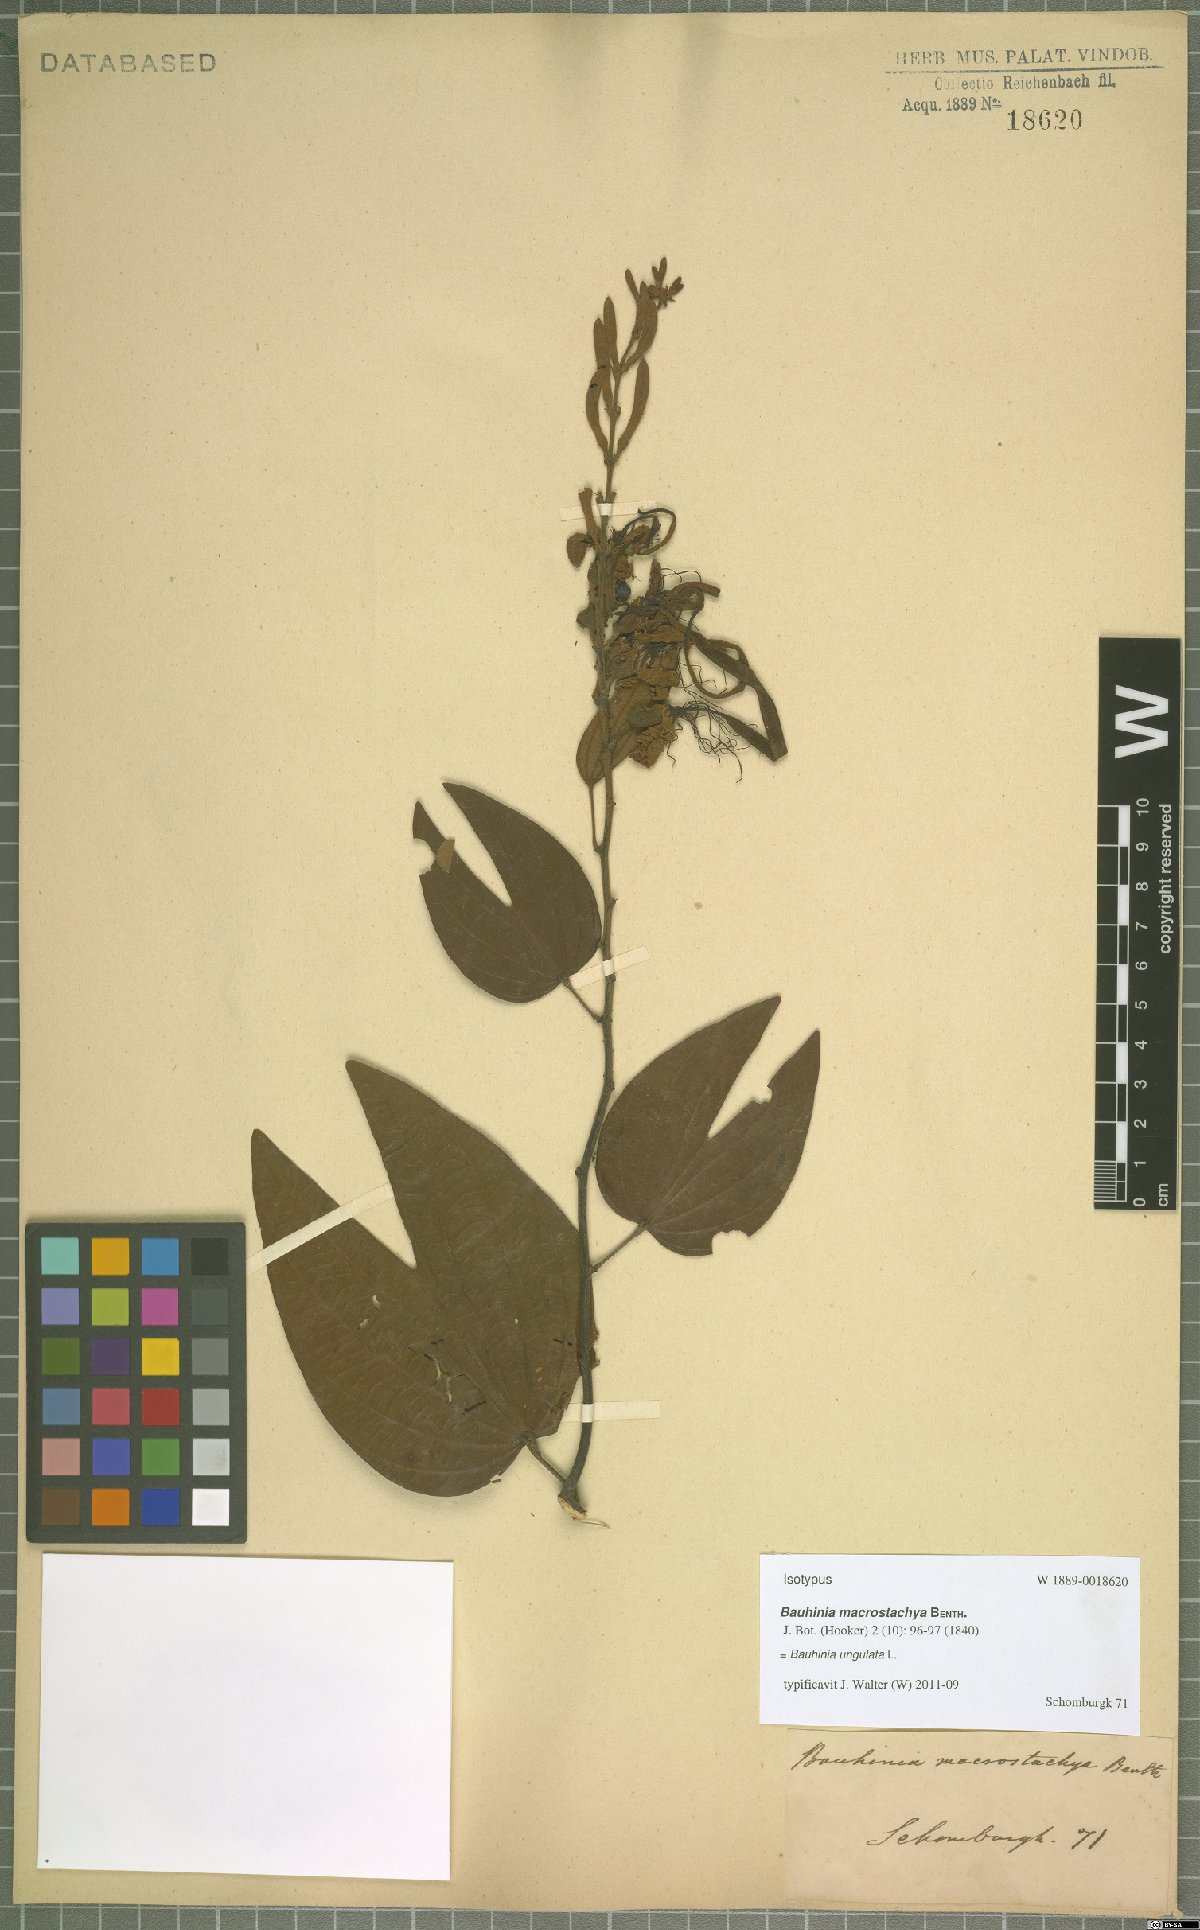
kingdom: Plantae
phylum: Tracheophyta
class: Magnoliopsida
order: Fabales
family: Fabaceae
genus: Bauhinia
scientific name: Bauhinia ungulata
